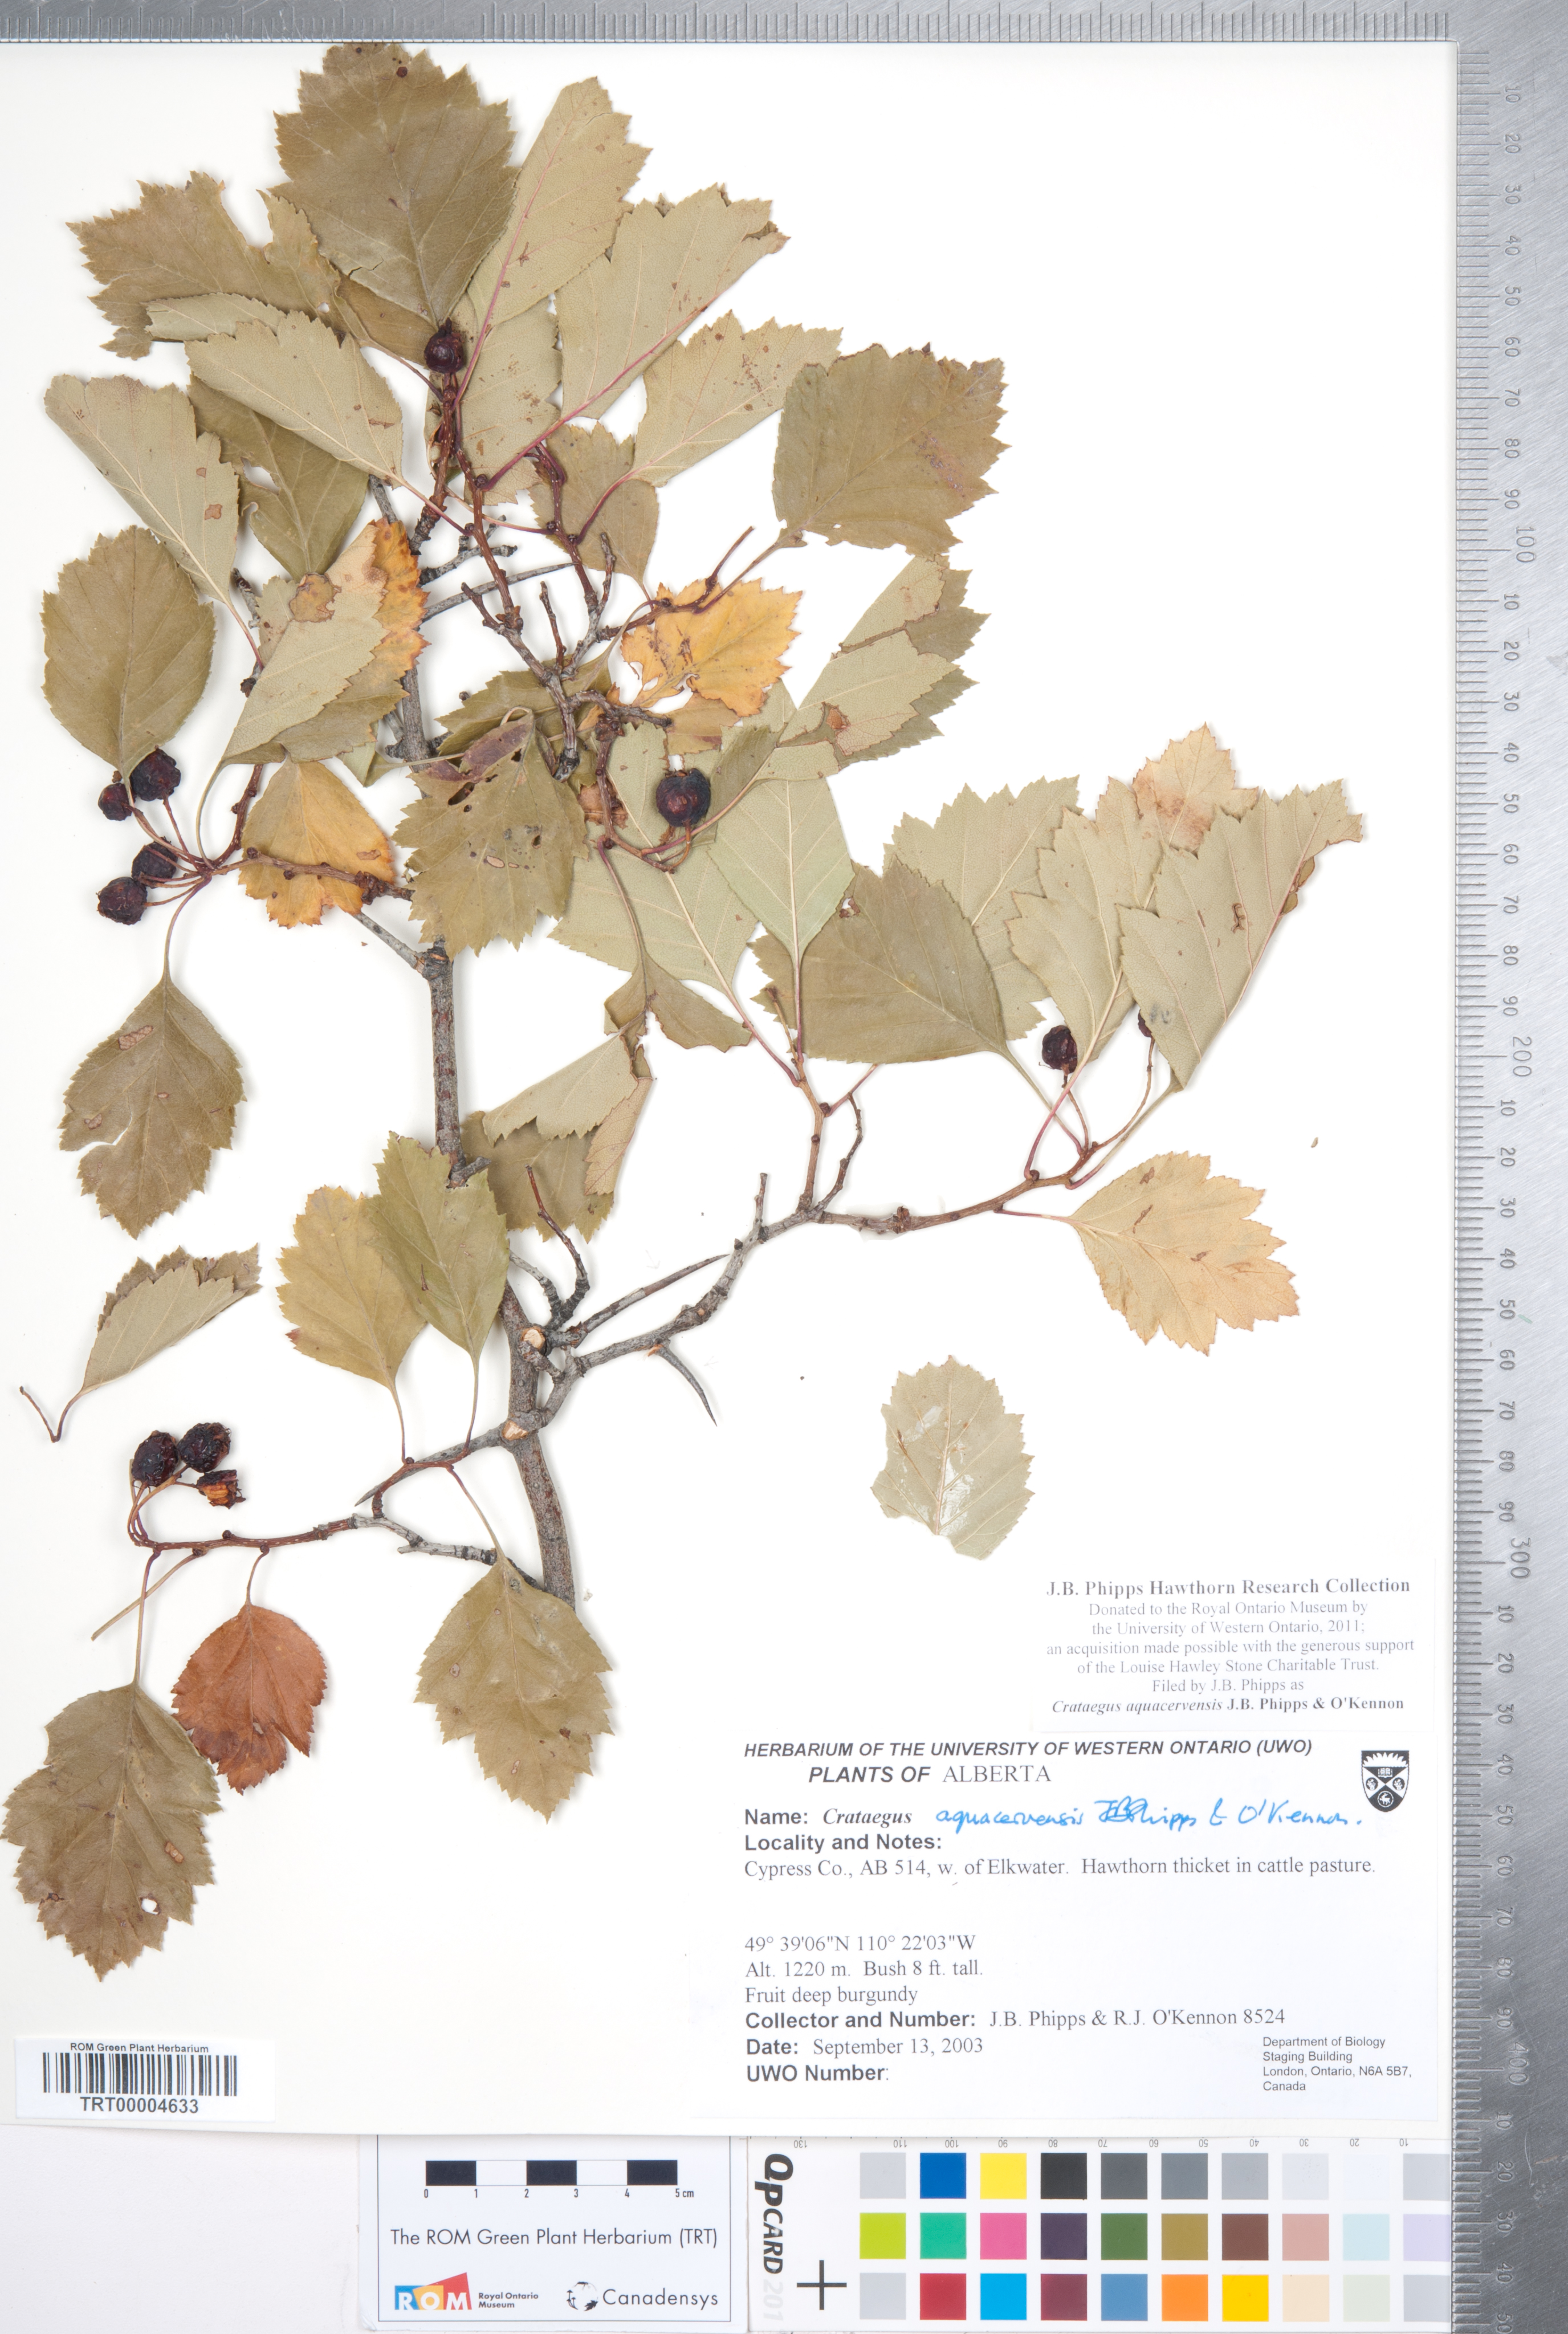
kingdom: Plantae
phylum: Tracheophyta
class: Magnoliopsida
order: Rosales
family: Rosaceae
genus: Crataegus
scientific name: Crataegus aquacervensis
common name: Elkwater hawthorn
